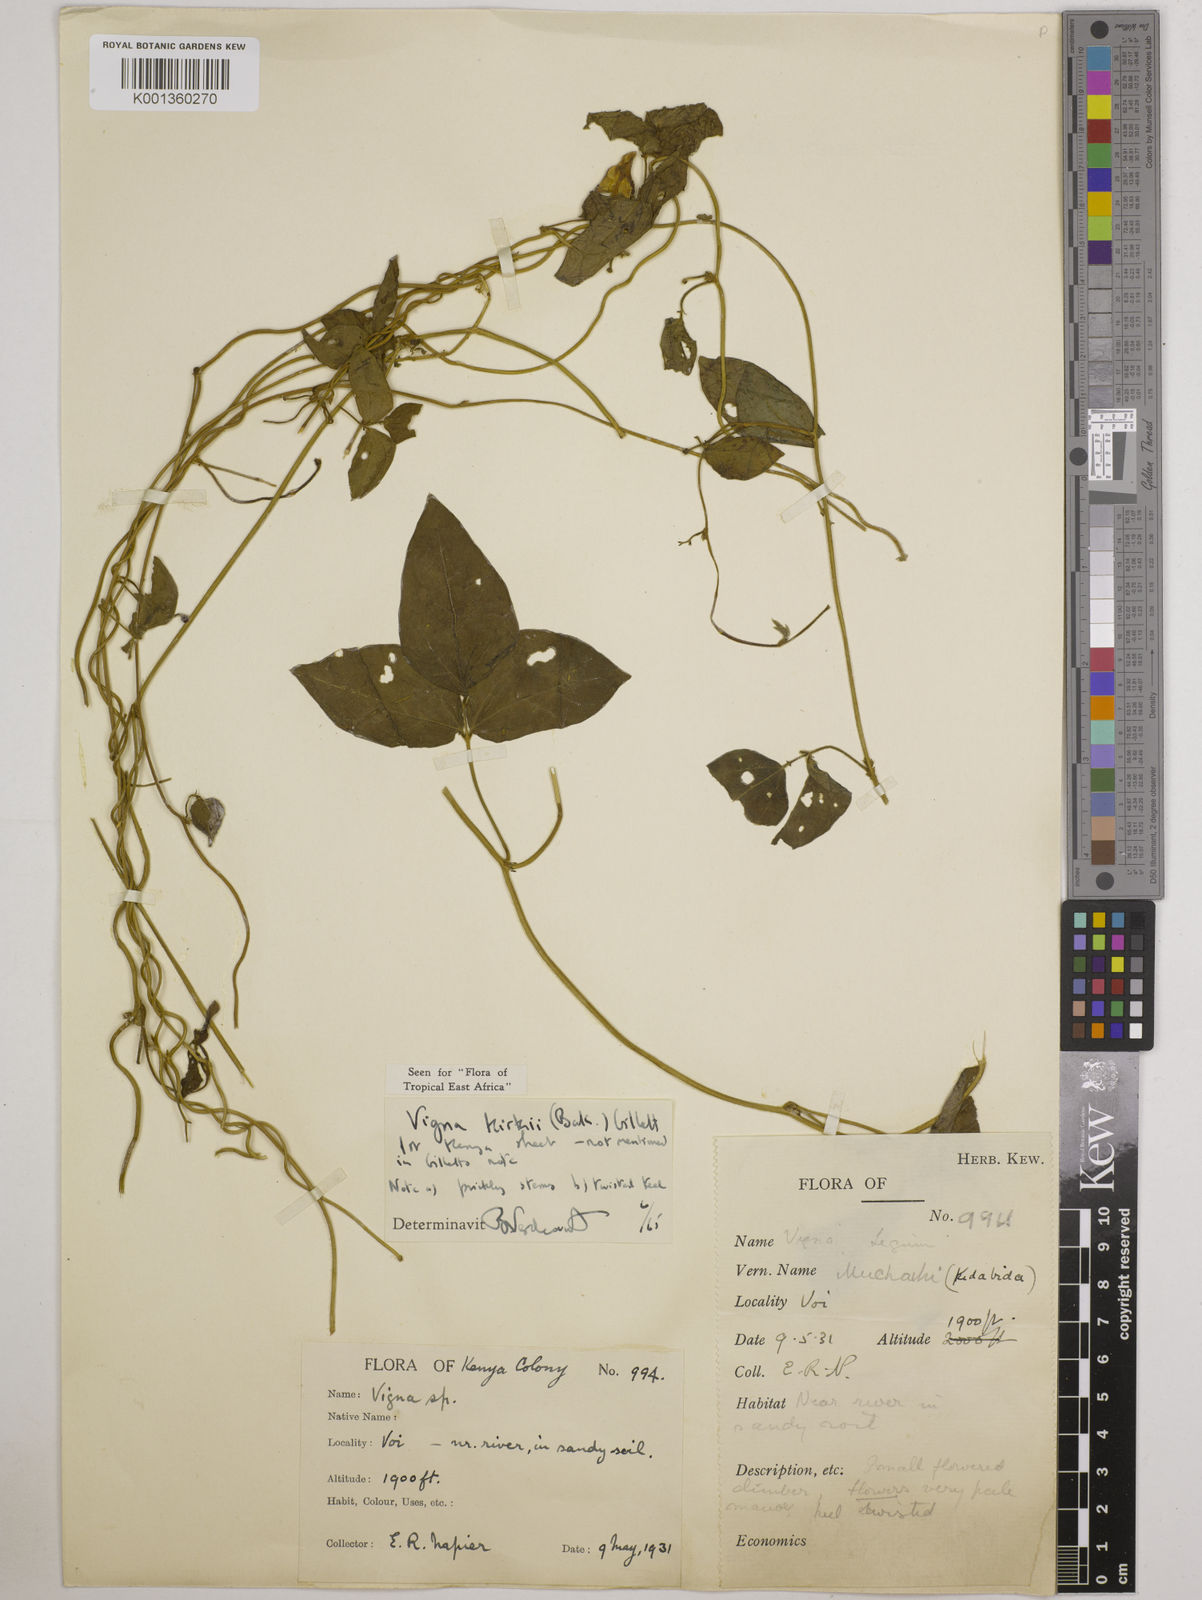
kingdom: Plantae
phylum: Tracheophyta
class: Magnoliopsida
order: Fabales
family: Fabaceae
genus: Vigna
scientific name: Vigna kirkii
